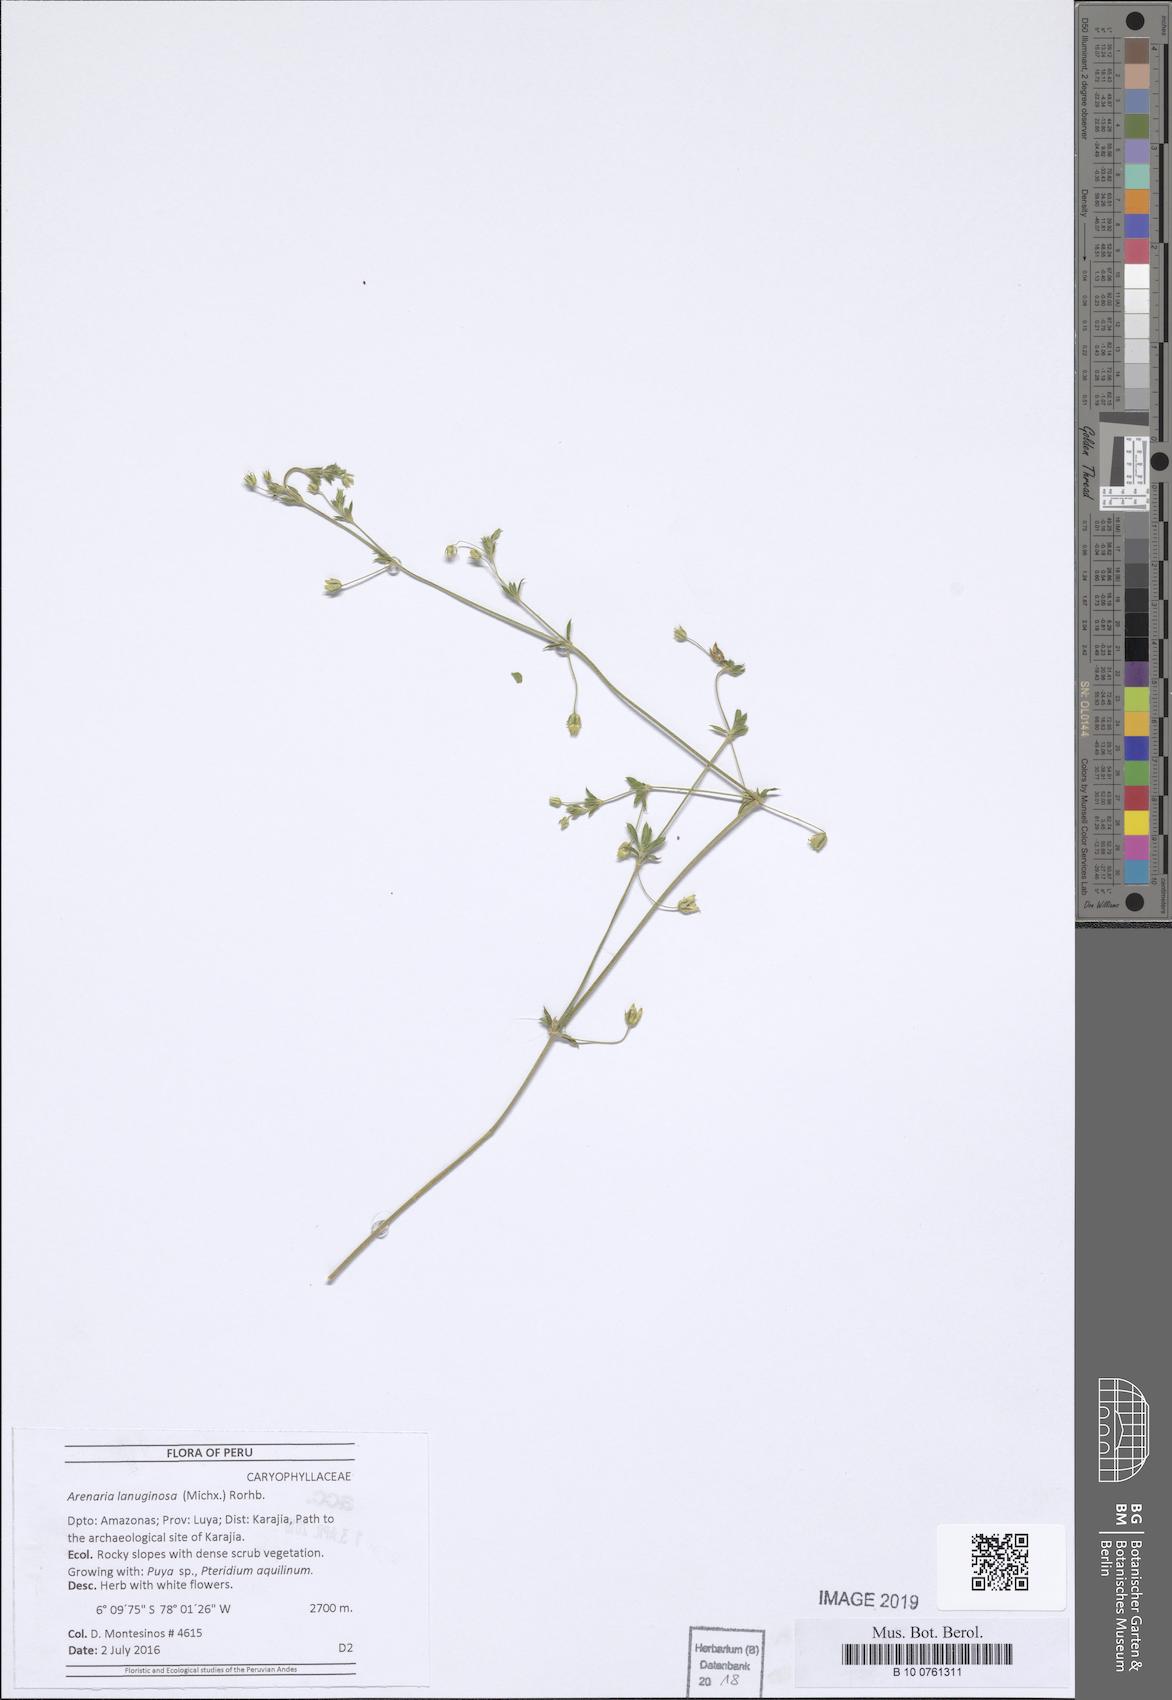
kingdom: Plantae
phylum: Tracheophyta
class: Magnoliopsida
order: Caryophyllales
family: Caryophyllaceae
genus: Arenaria
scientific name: Arenaria lanuginosa
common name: Spread sandwort
